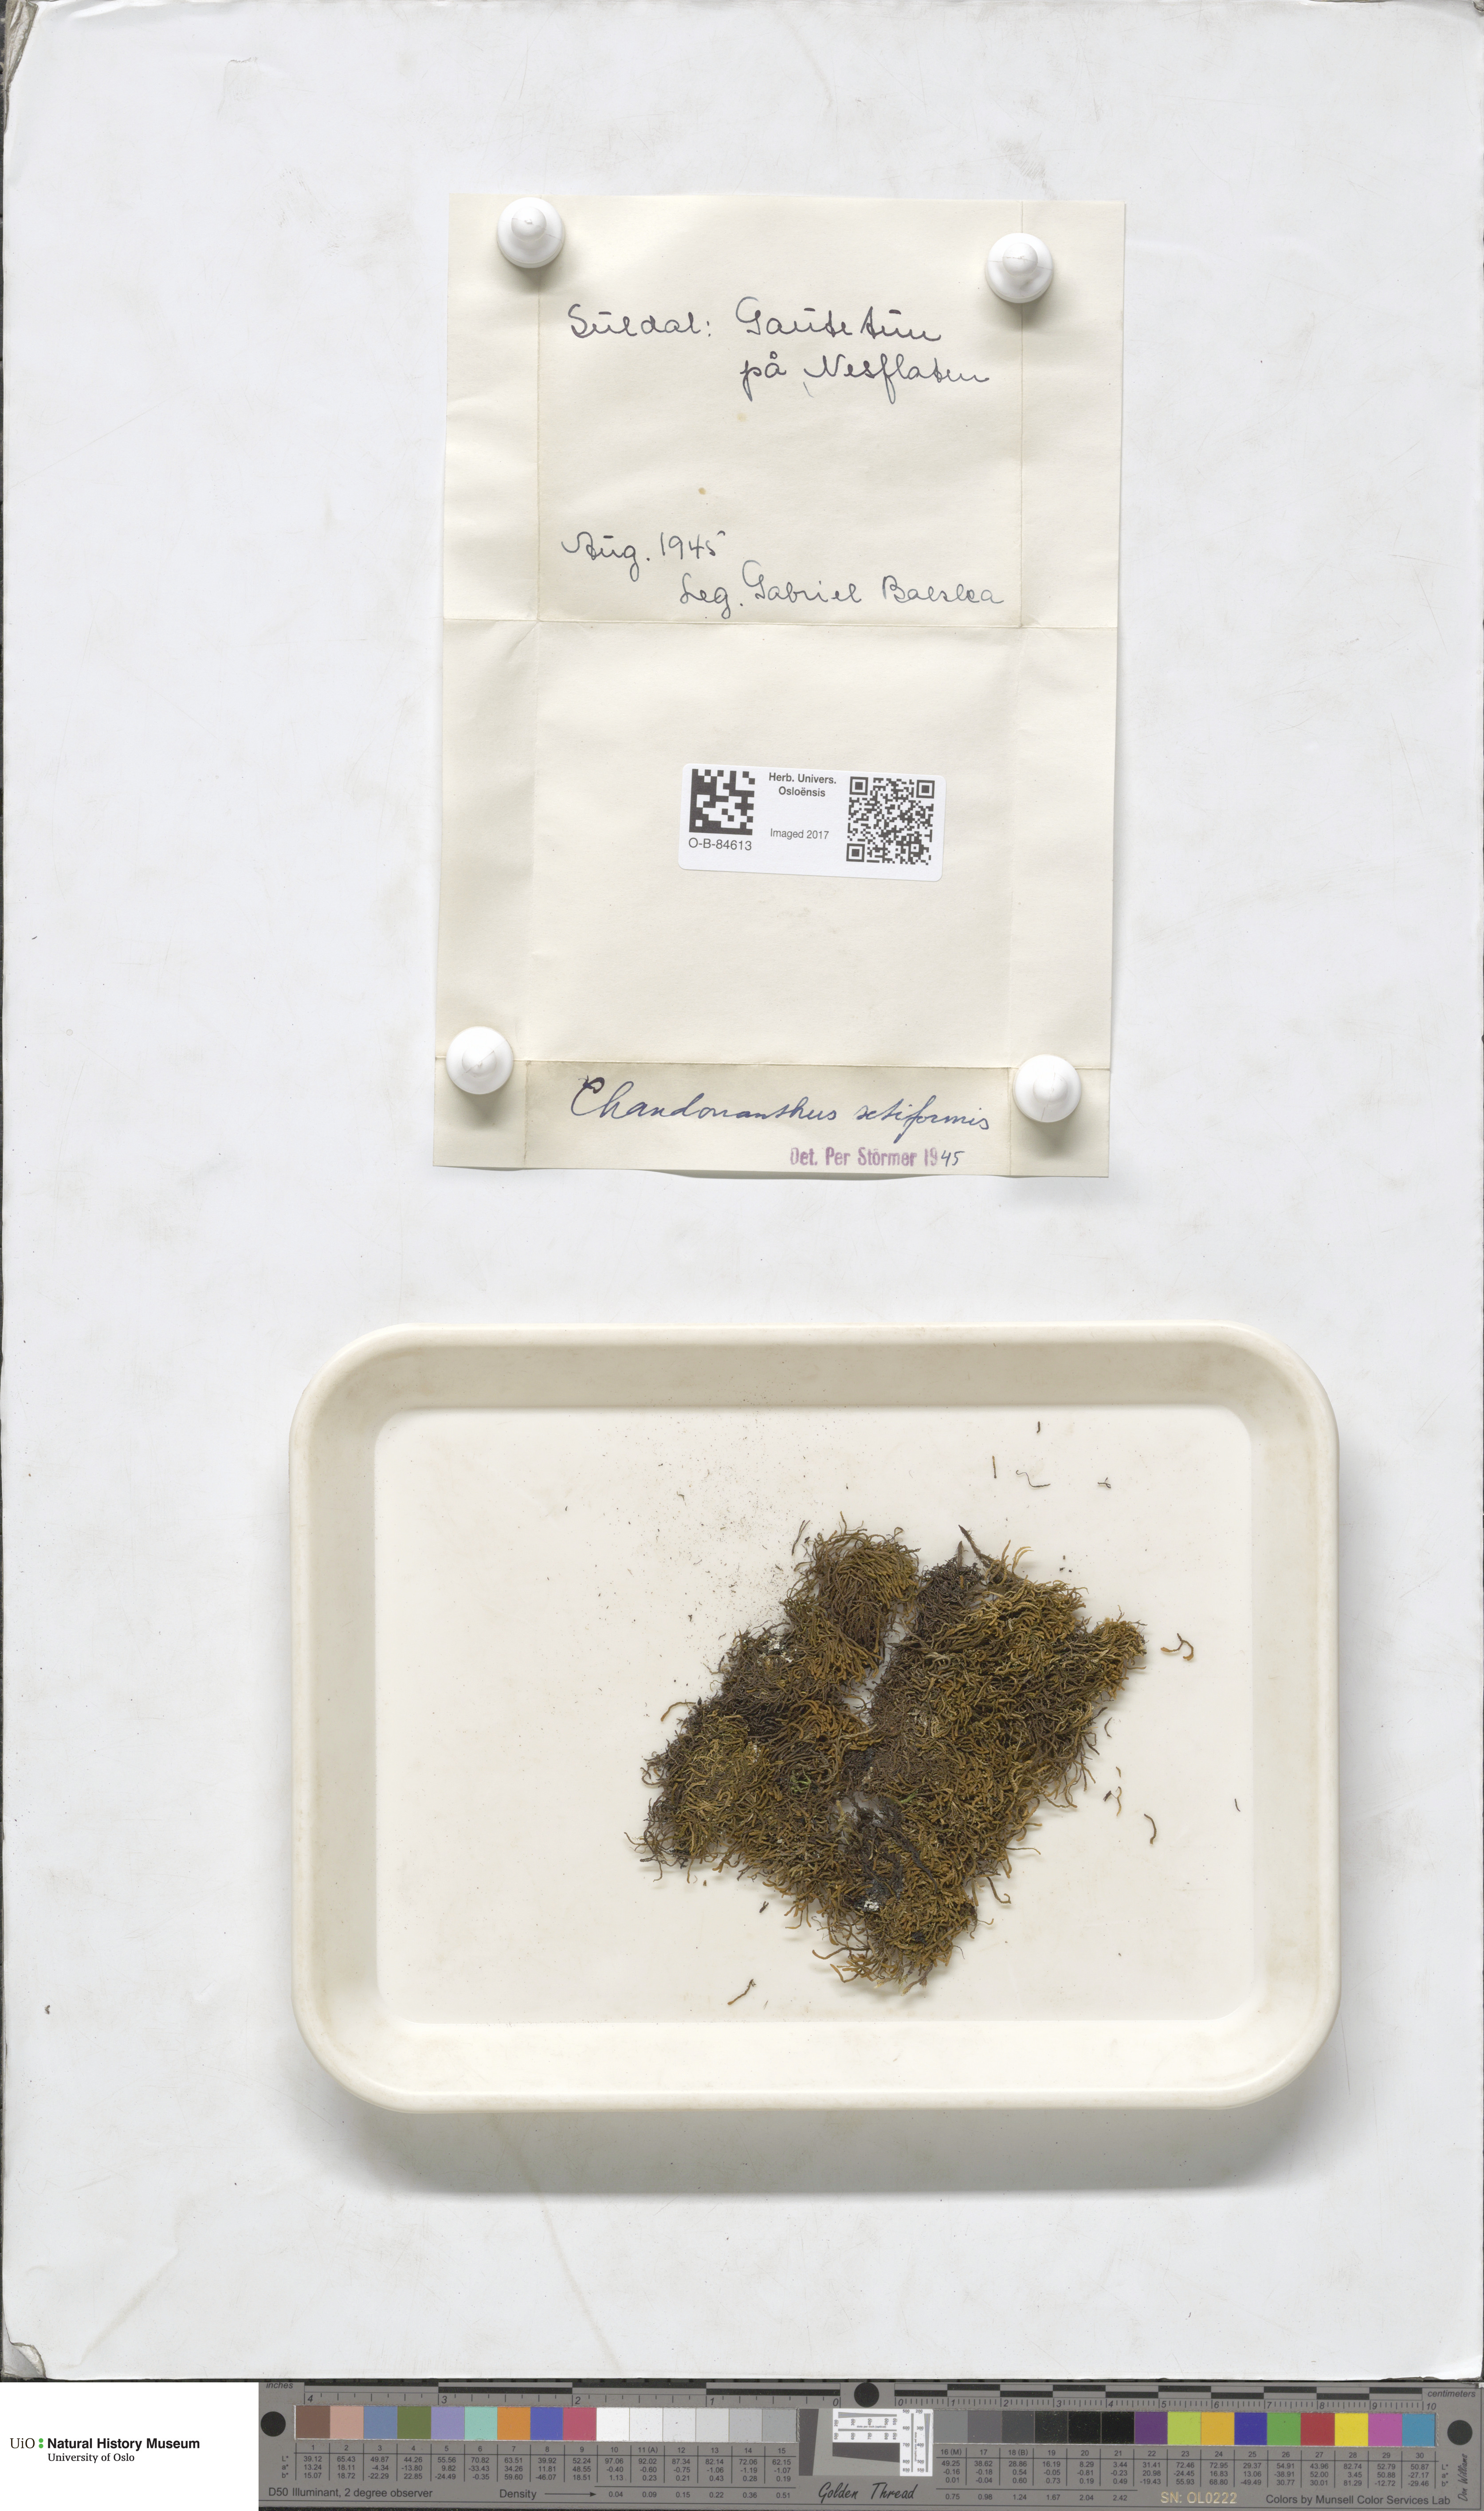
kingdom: Plantae
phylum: Marchantiophyta
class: Jungermanniopsida
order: Jungermanniales
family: Anastrophyllaceae
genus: Tetralophozia
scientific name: Tetralophozia setiformis
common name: Monster pawwort
